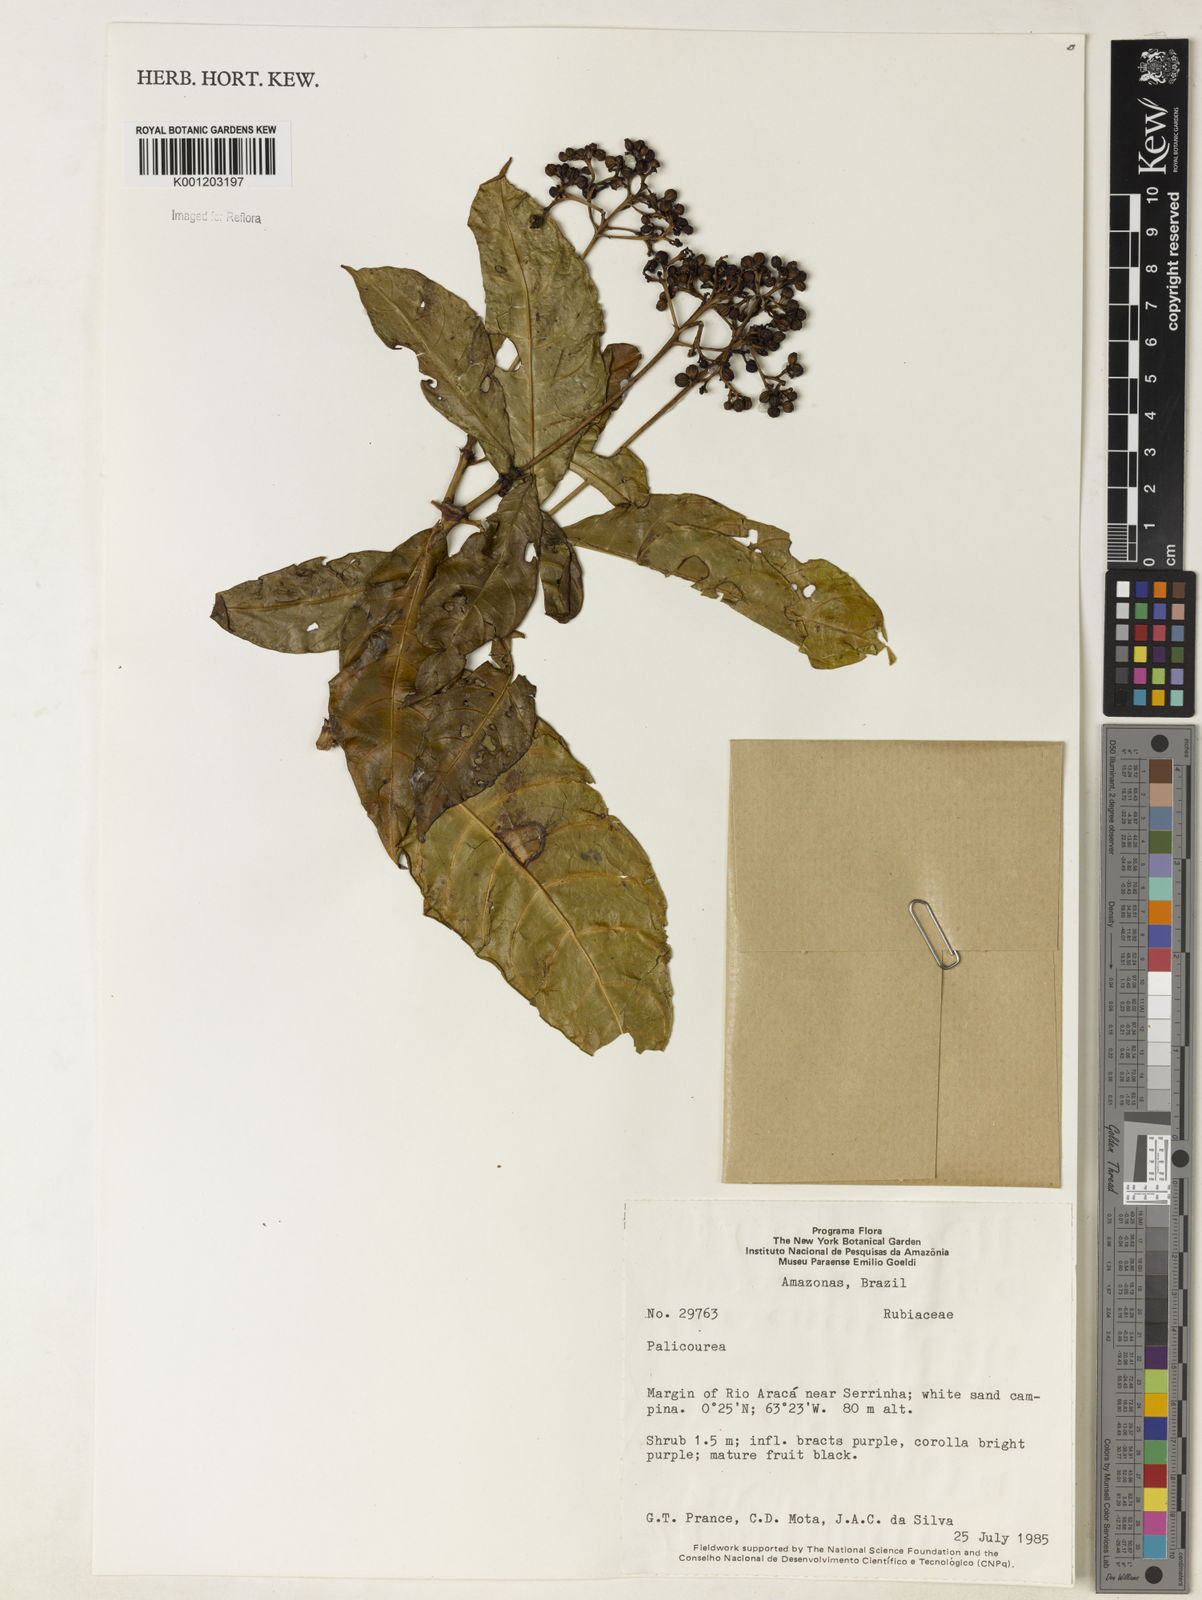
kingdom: Plantae
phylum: Tracheophyta
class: Magnoliopsida
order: Gentianales
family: Rubiaceae
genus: Palicourea
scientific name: Palicourea
